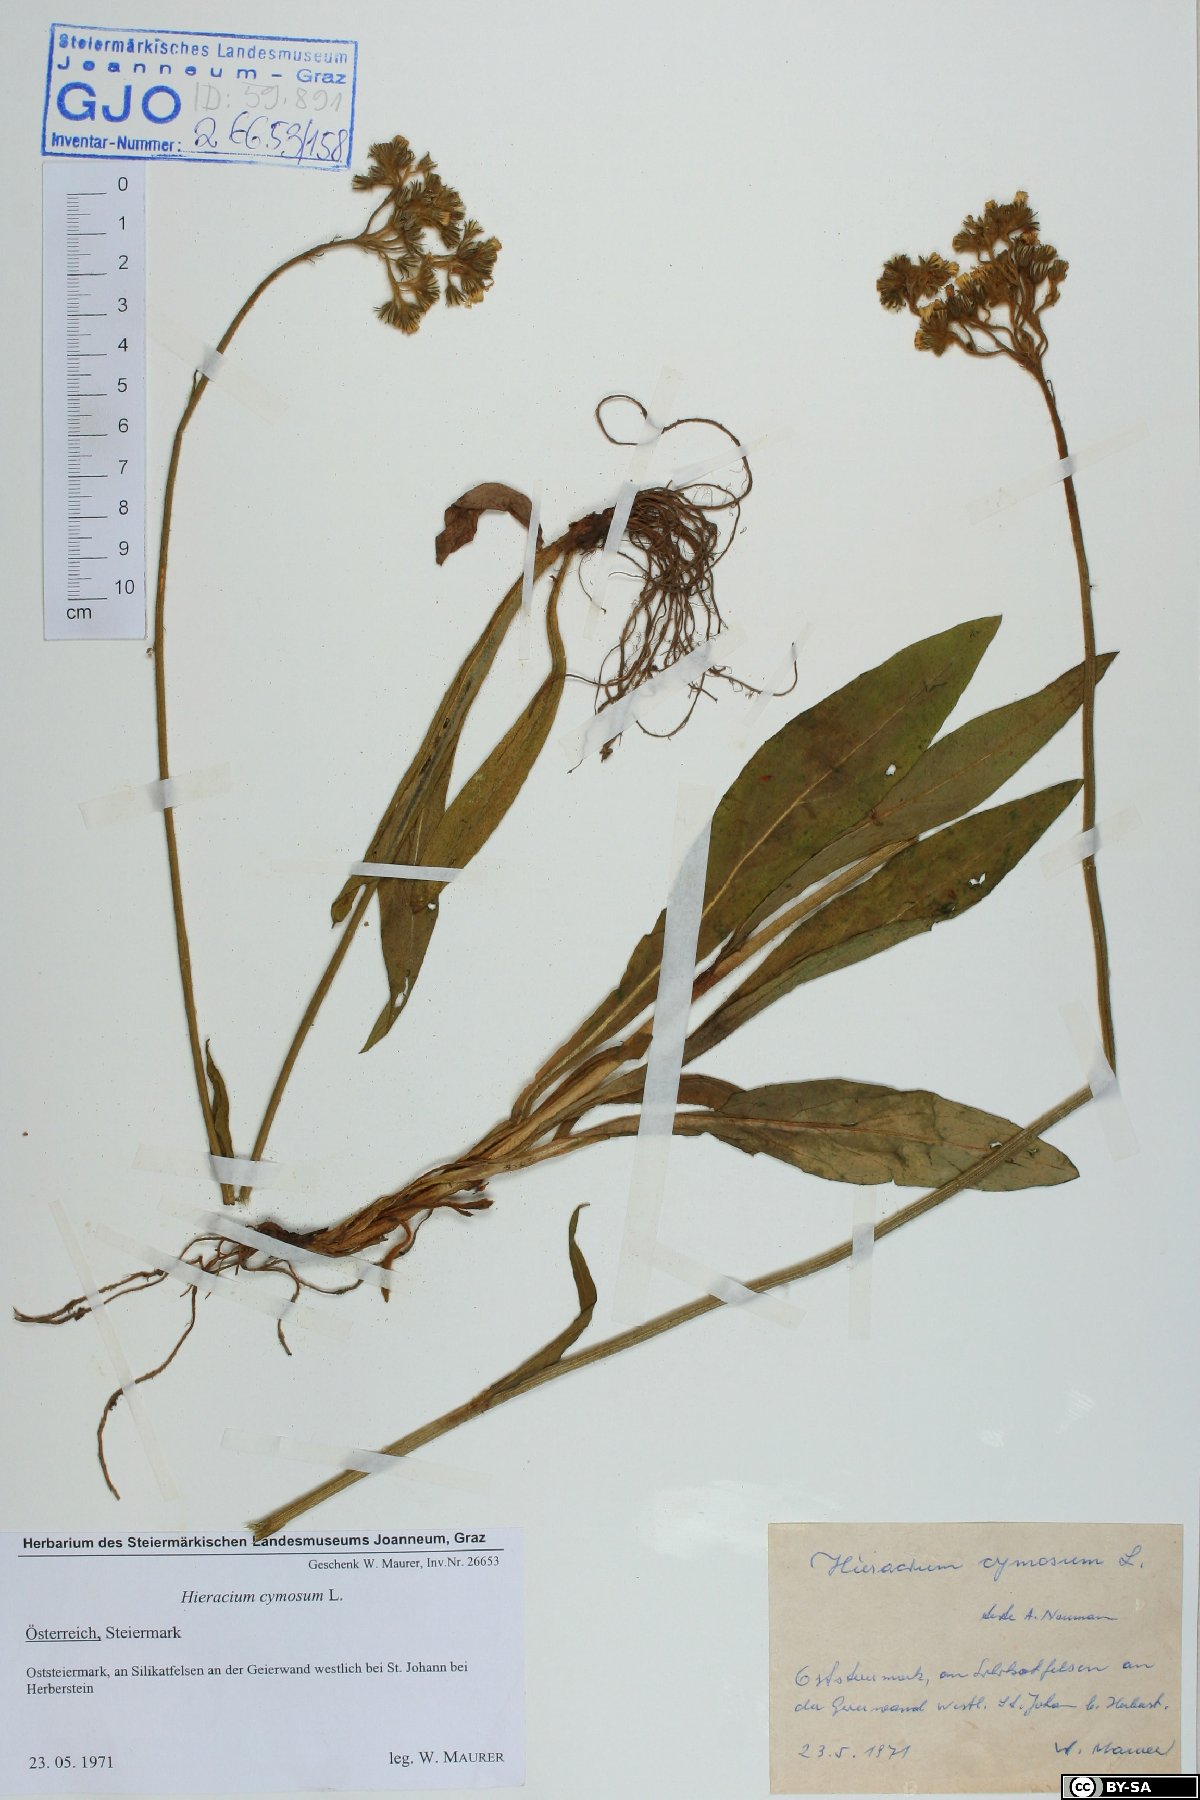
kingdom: Plantae
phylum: Tracheophyta
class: Magnoliopsida
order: Asterales
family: Asteraceae
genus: Pilosella
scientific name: Pilosella cymosa
